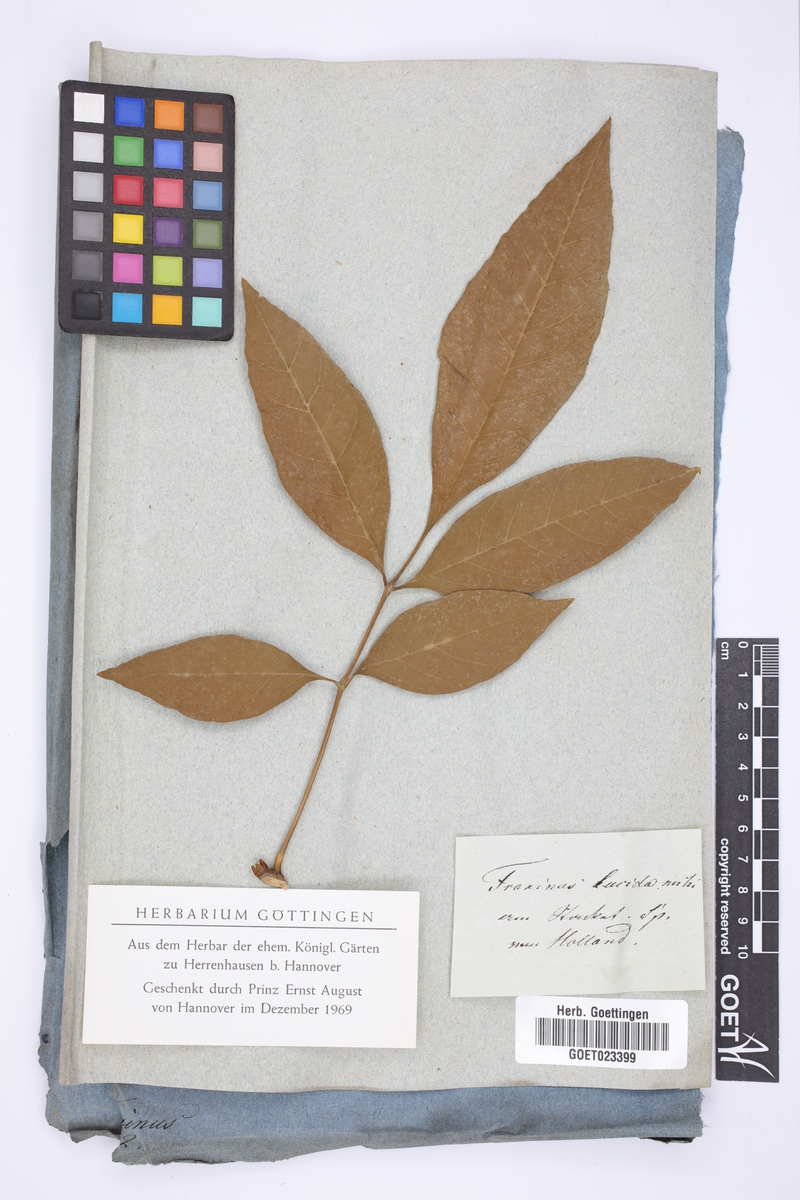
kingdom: Plantae
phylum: Tracheophyta
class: Magnoliopsida
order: Lamiales
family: Oleaceae
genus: Fraxinus
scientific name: Fraxinus excelsior
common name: European ash
